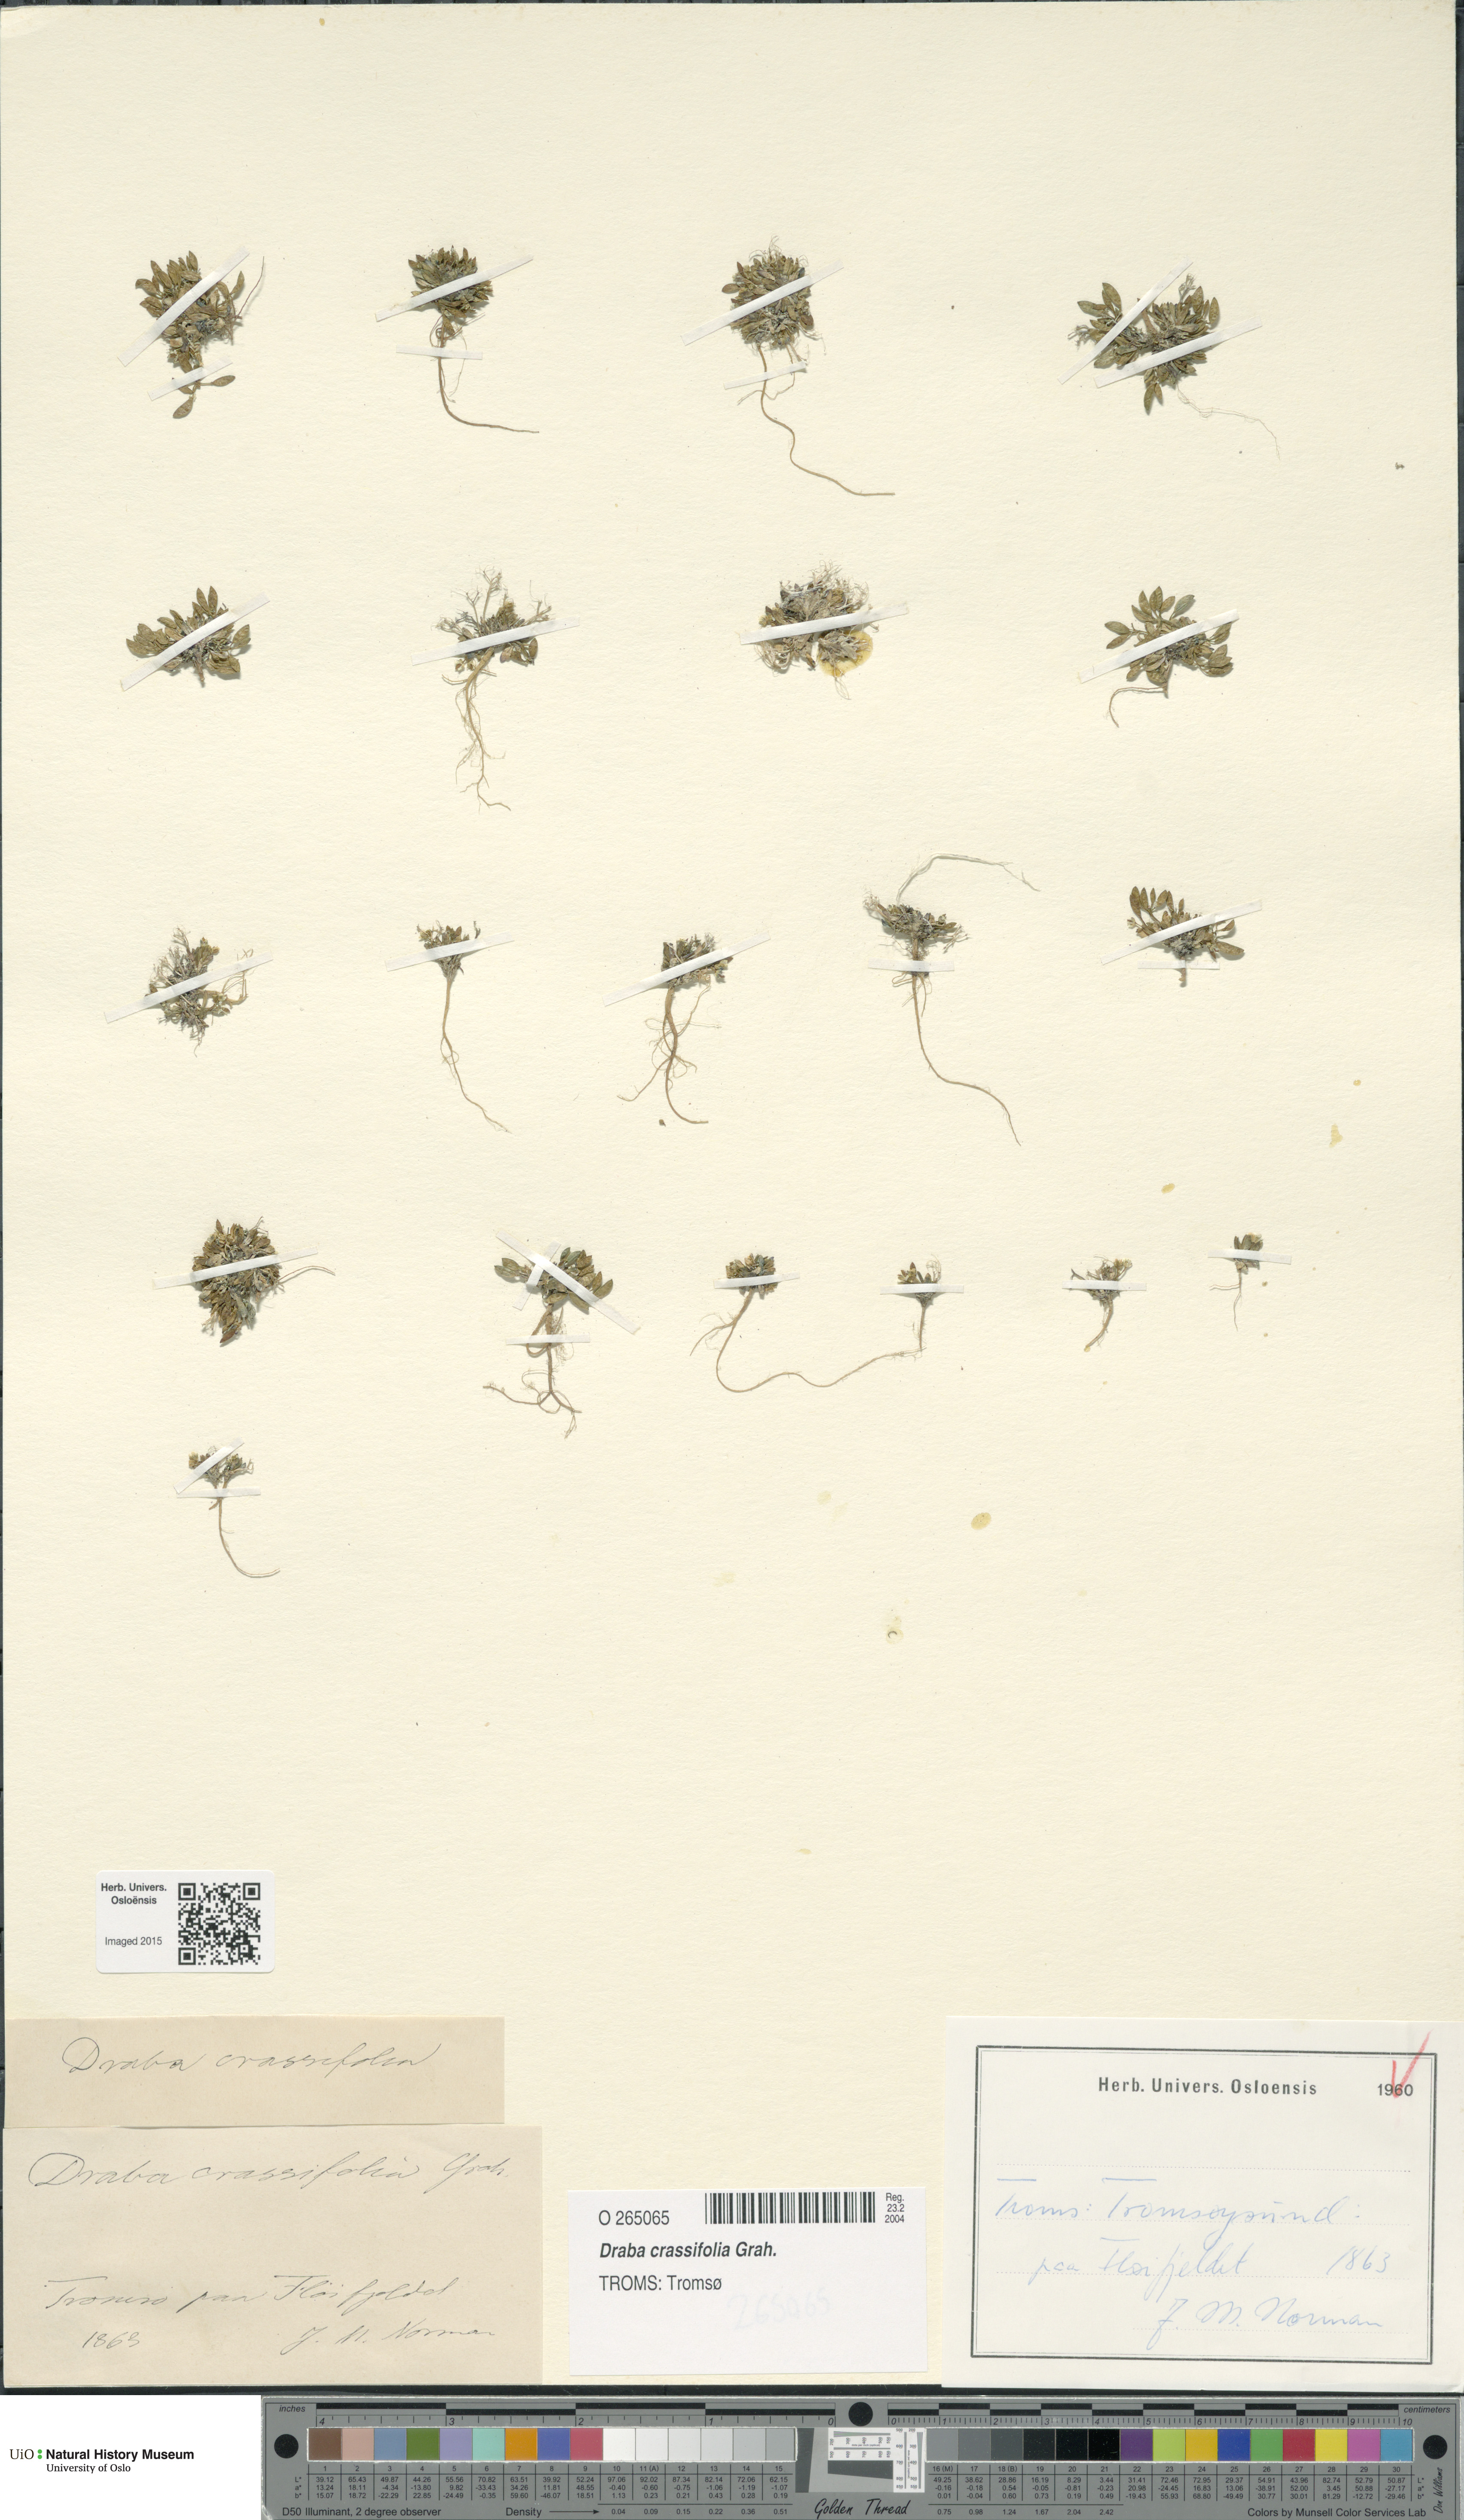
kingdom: Plantae
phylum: Tracheophyta
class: Magnoliopsida
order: Brassicales
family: Brassicaceae
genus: Draba
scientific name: Draba crassifolia
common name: Rocky mountain draba
